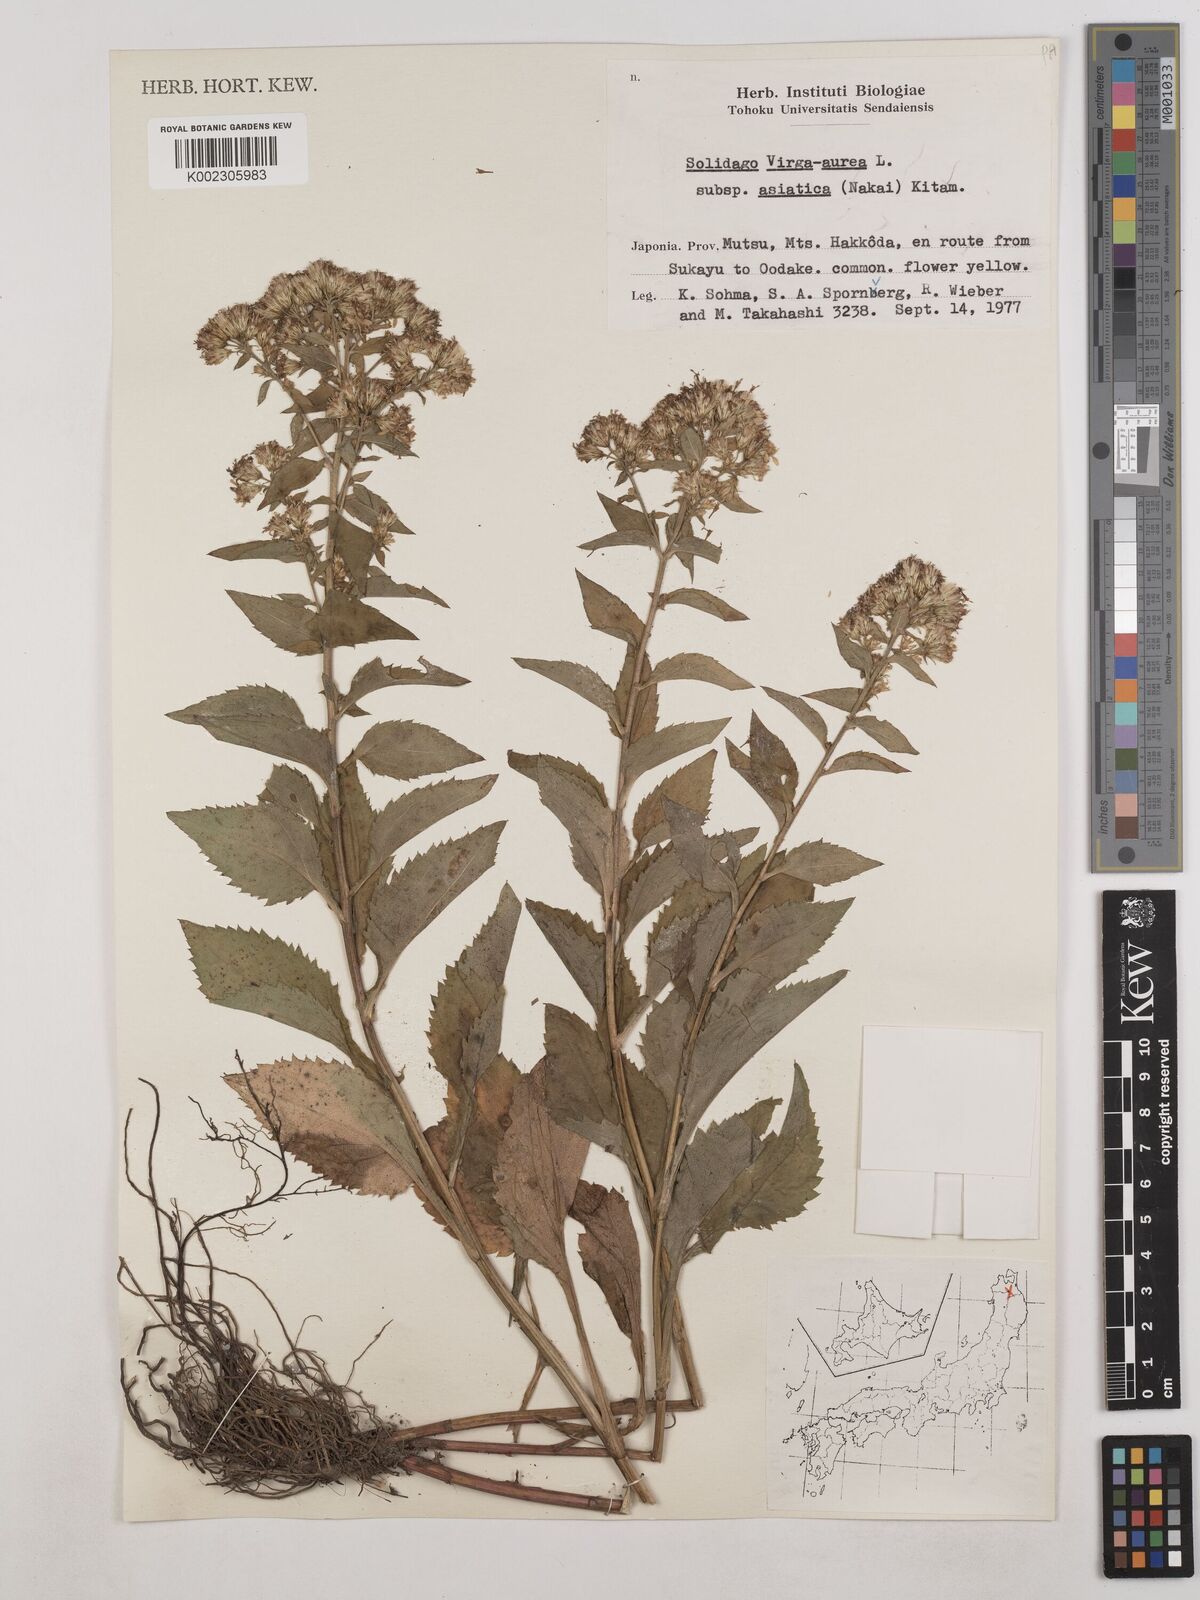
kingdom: Plantae
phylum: Tracheophyta
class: Magnoliopsida
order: Asterales
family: Asteraceae
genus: Solidago
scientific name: Solidago virgaurea
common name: Goldenrod
